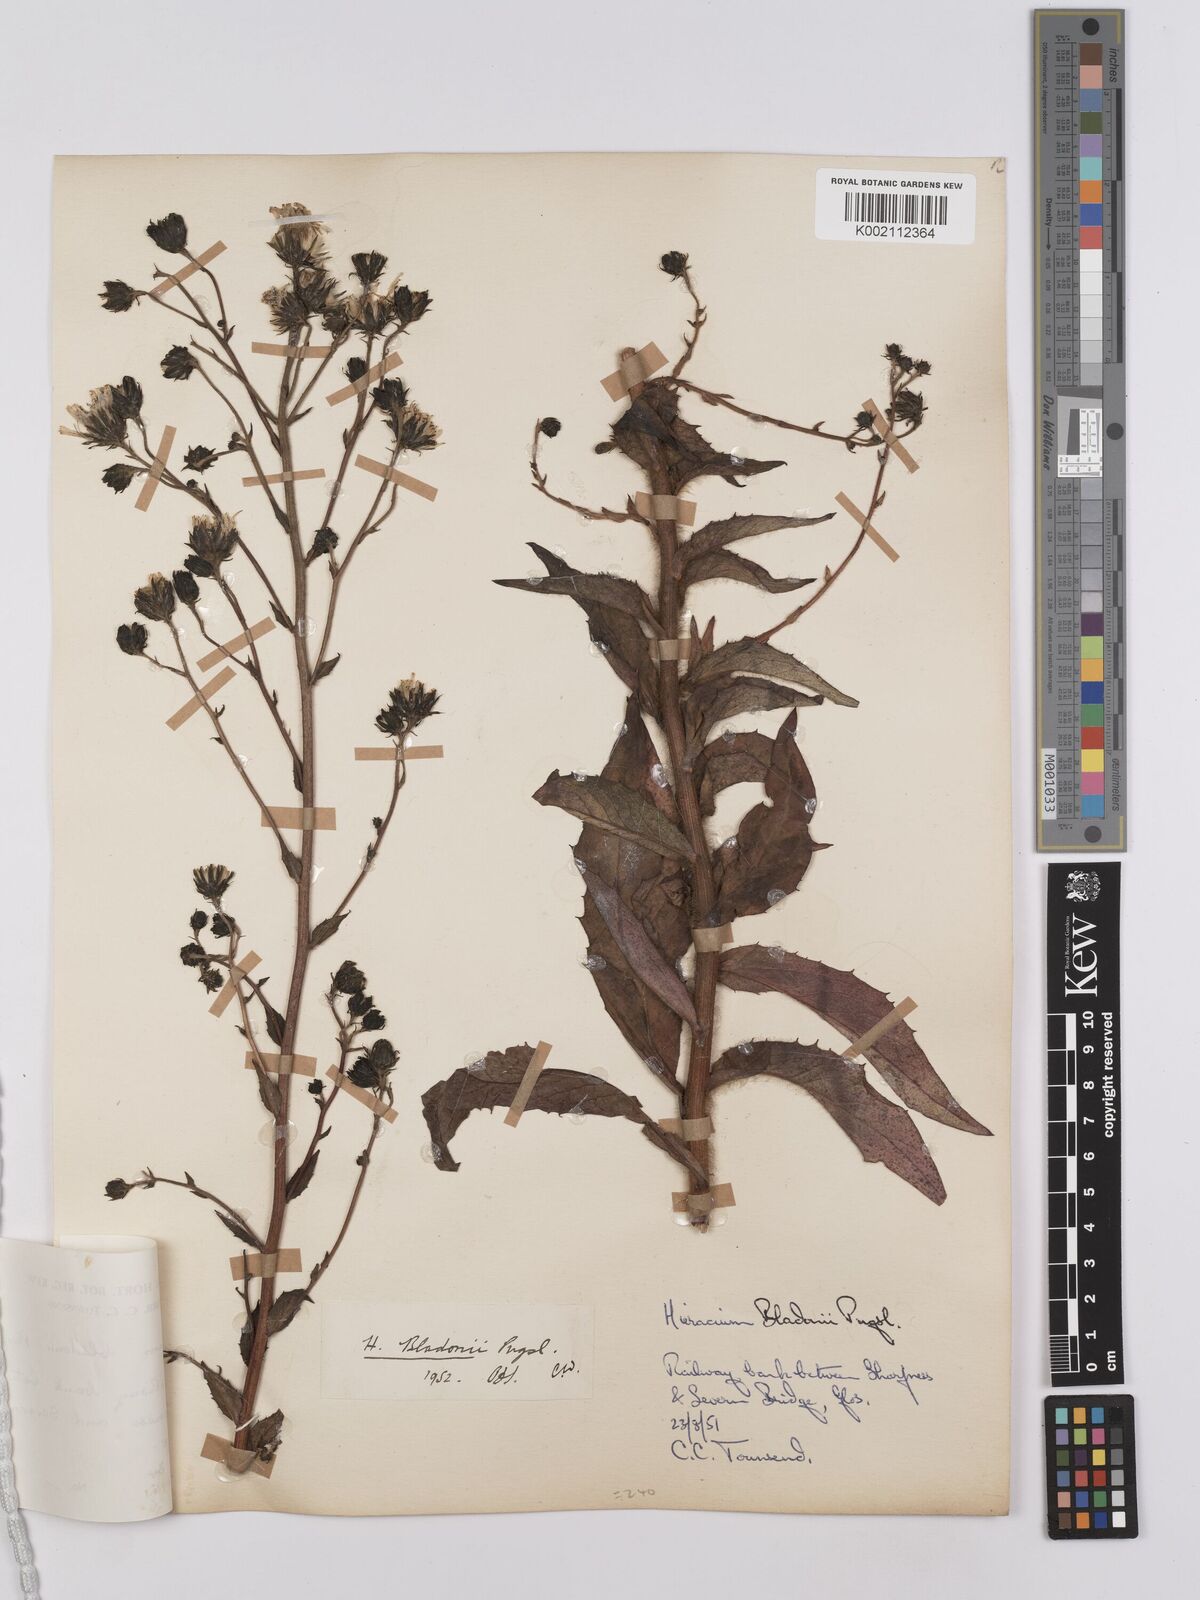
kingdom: Plantae
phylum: Tracheophyta
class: Magnoliopsida
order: Asterales
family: Asteraceae
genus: Hieracium
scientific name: Hieracium sabaudum
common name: New england hawkweed
